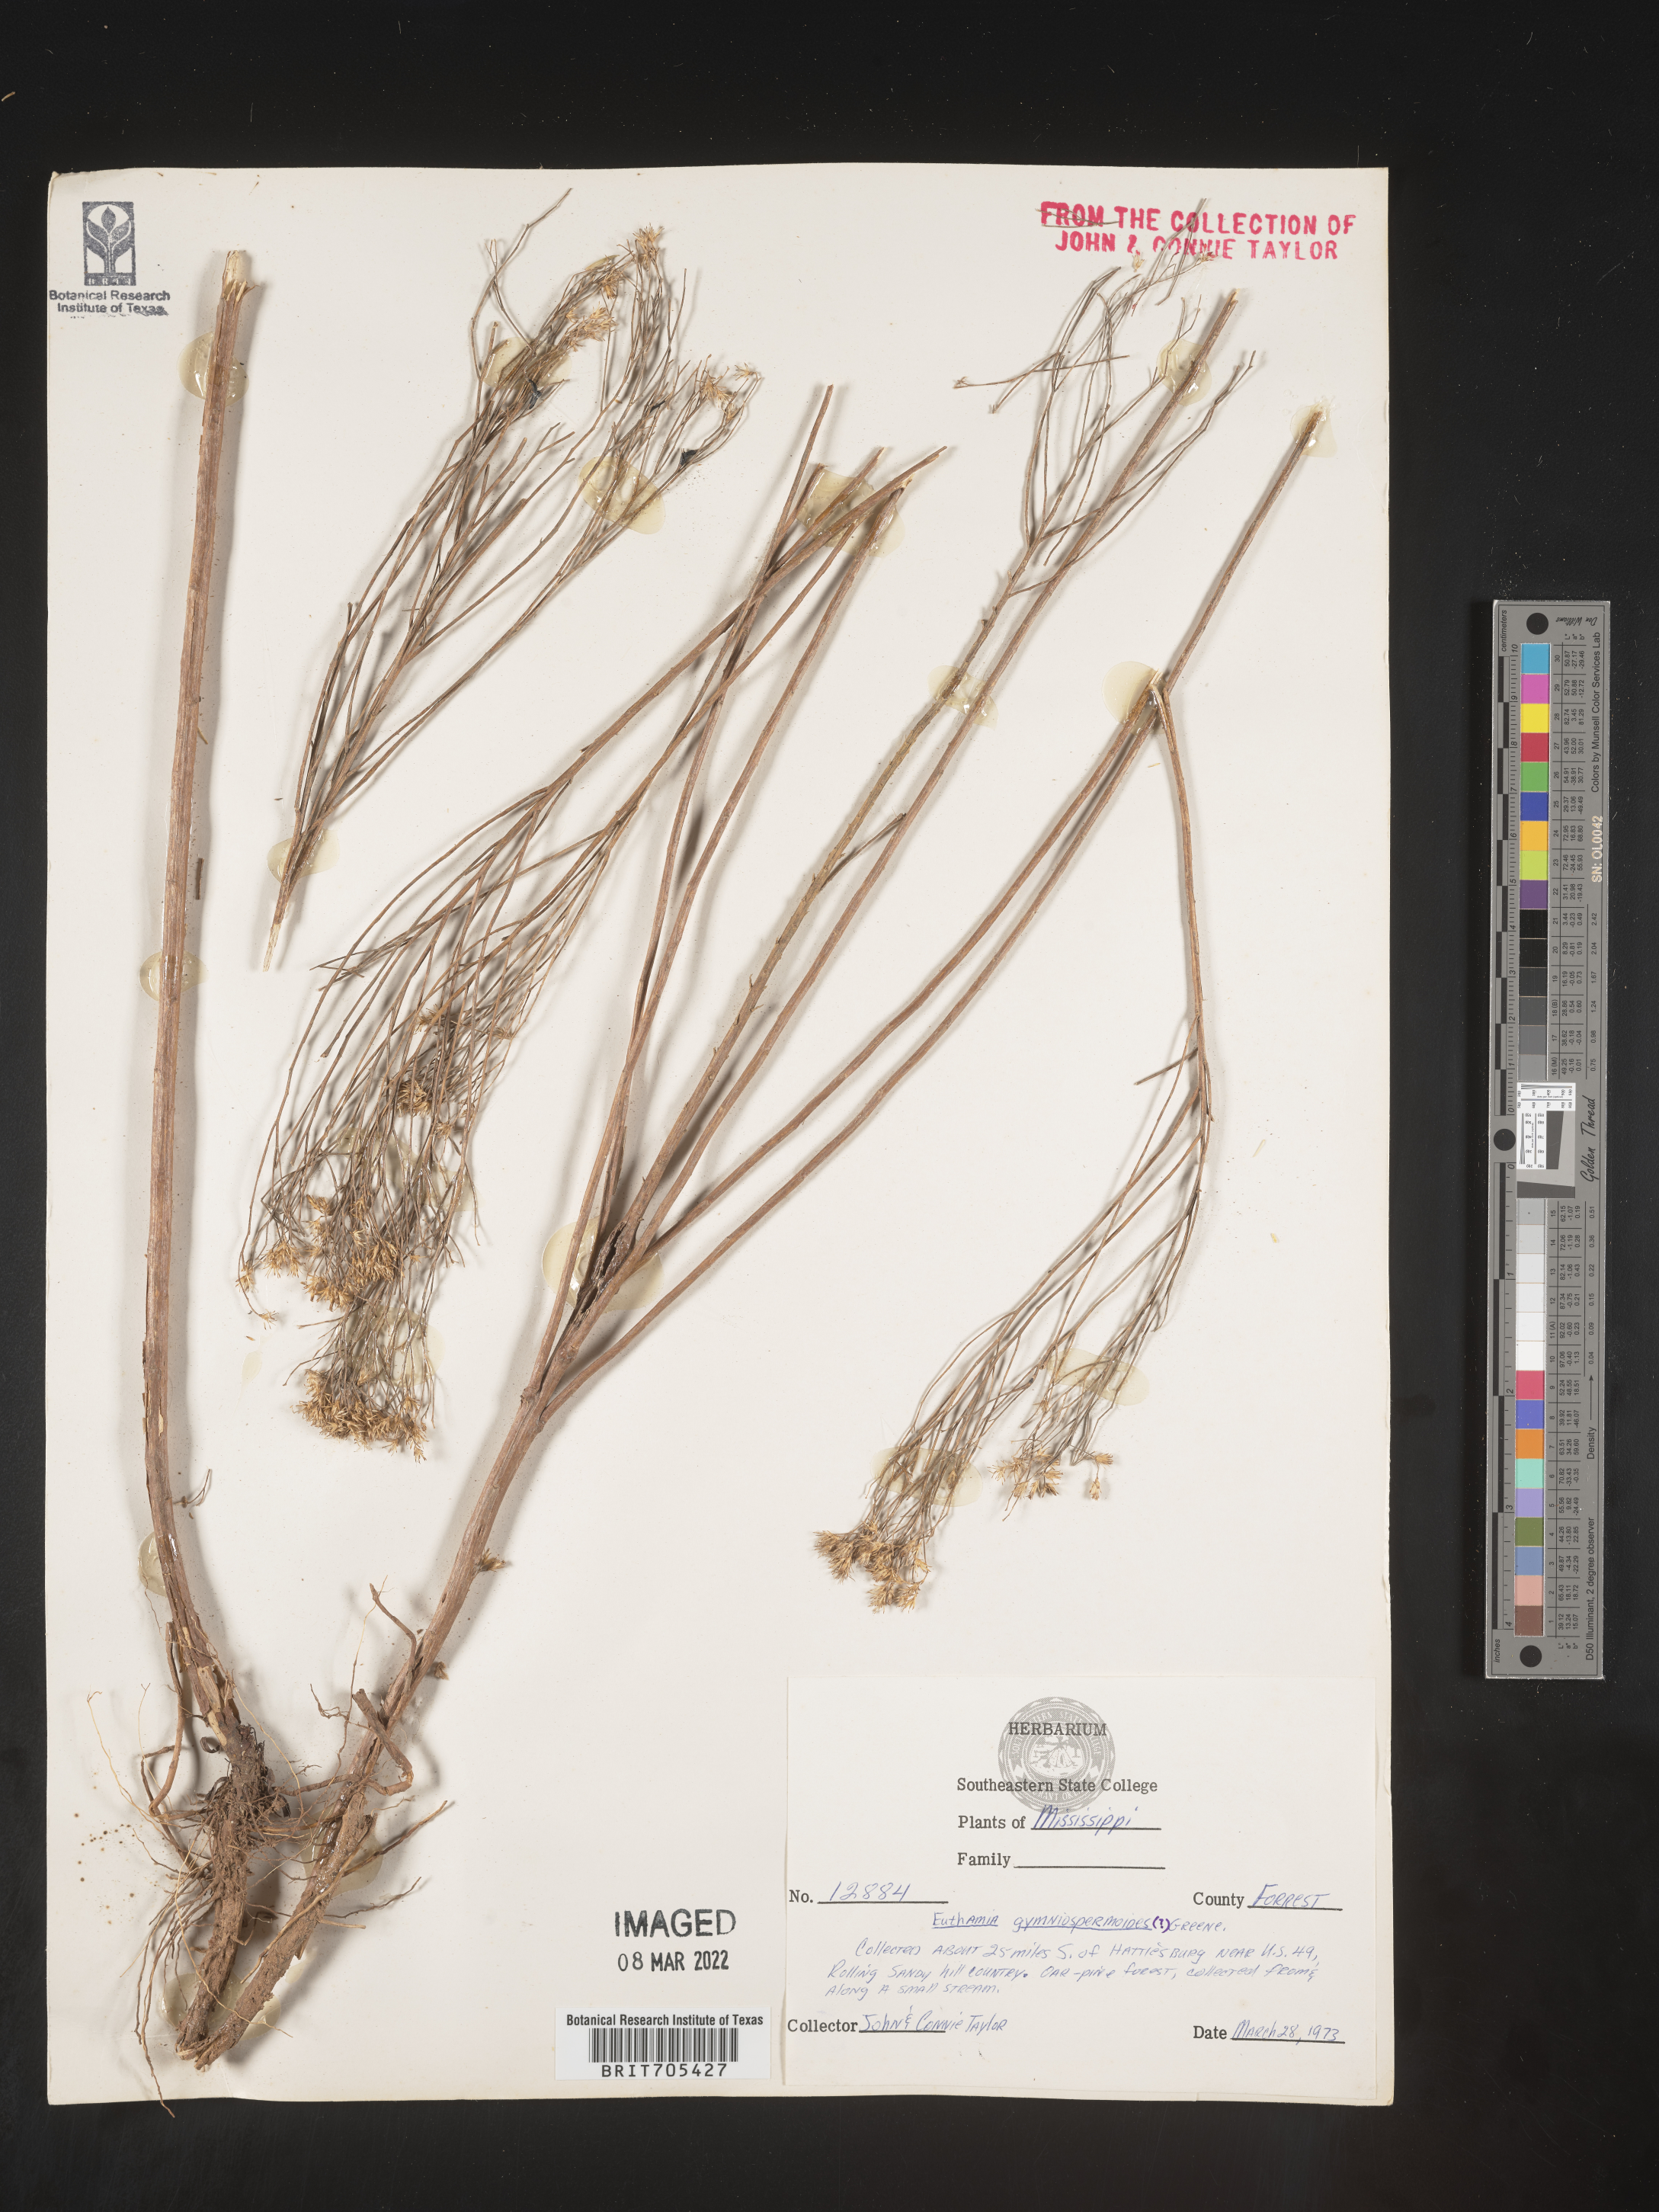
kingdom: Plantae
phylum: Tracheophyta
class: Magnoliopsida
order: Asterales
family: Asteraceae
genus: Euthamia
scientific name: Euthamia
